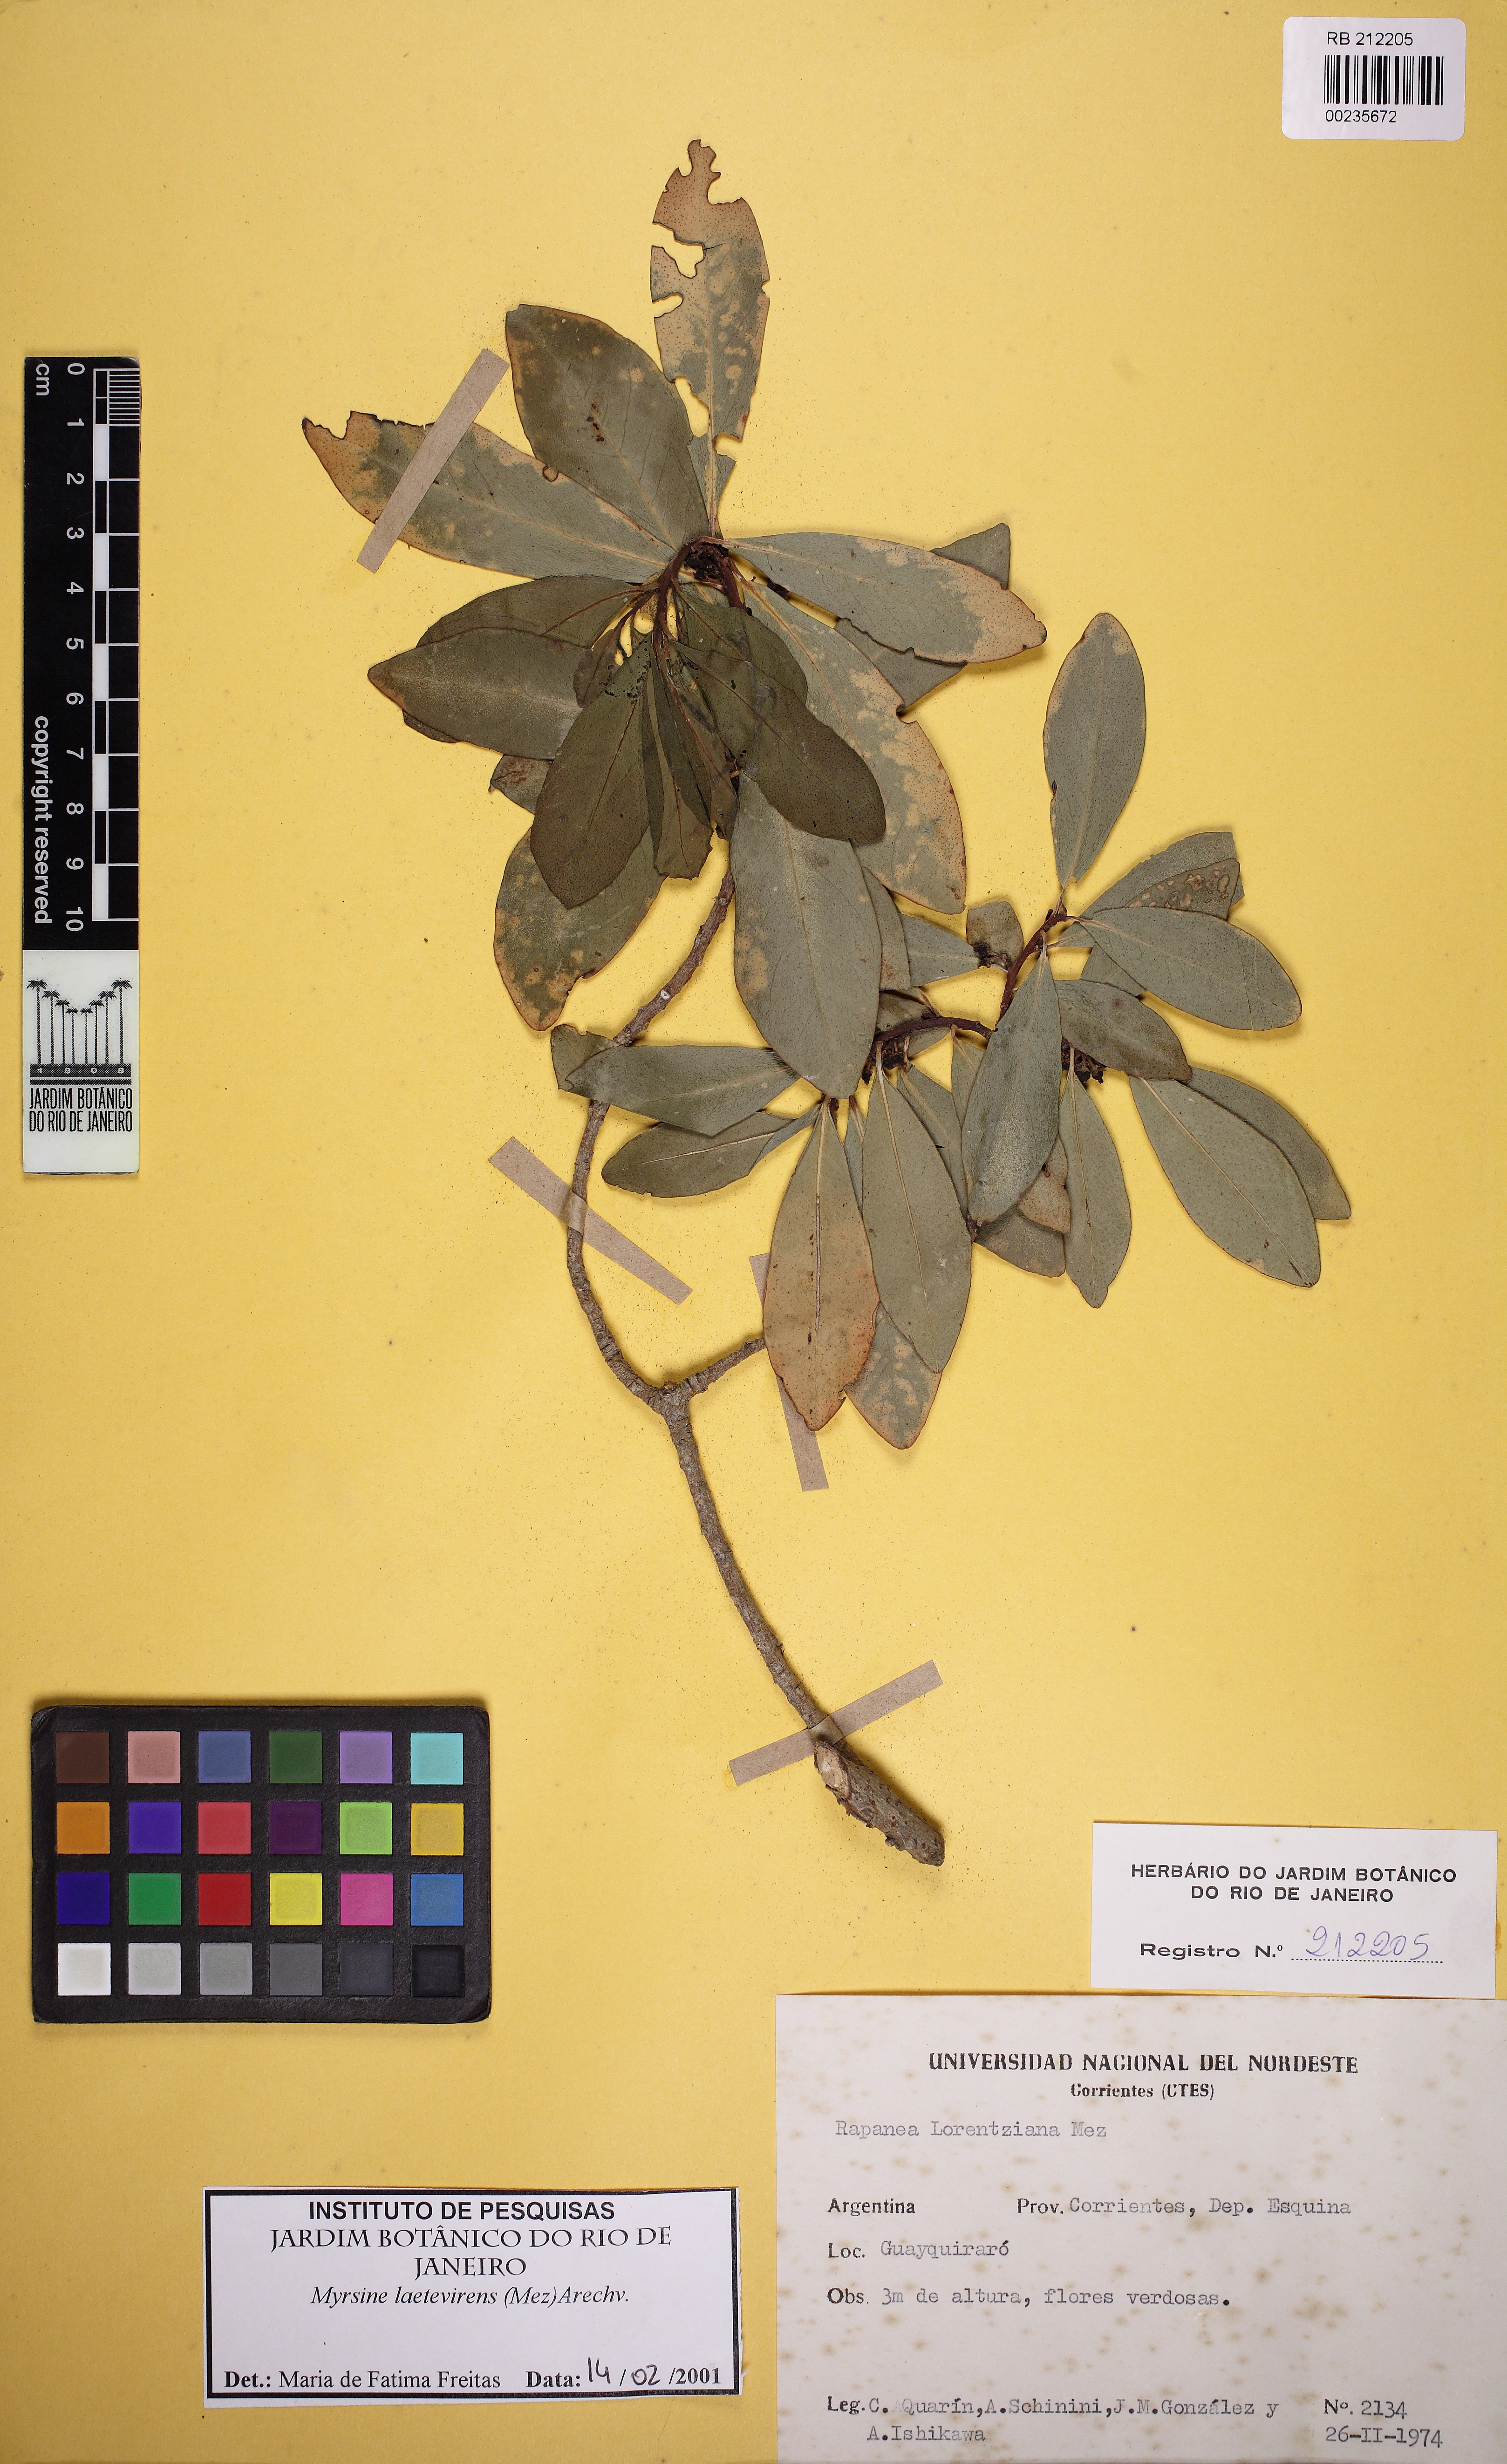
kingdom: Plantae
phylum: Tracheophyta
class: Magnoliopsida
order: Ericales
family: Primulaceae
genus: Myrsine
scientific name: Myrsine laetevirens
